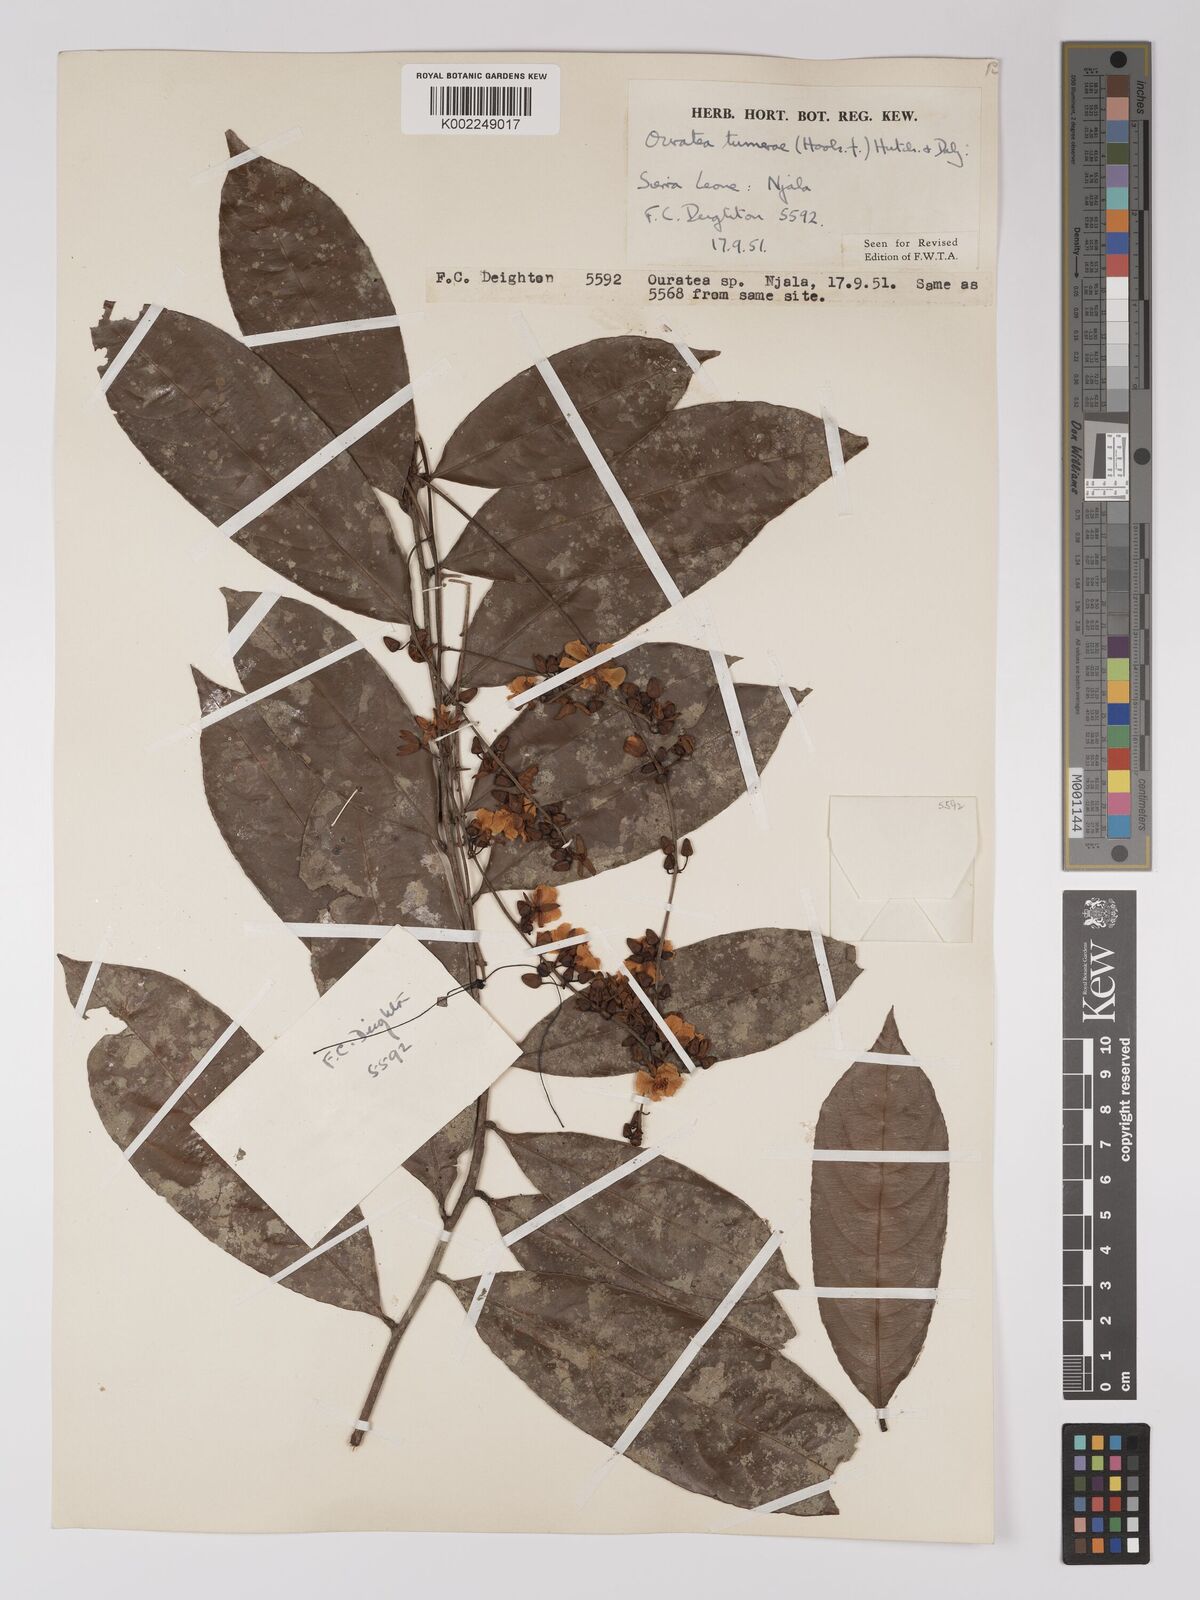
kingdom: Plantae
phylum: Tracheophyta
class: Magnoliopsida
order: Malpighiales
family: Ochnaceae
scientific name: Ochnaceae
